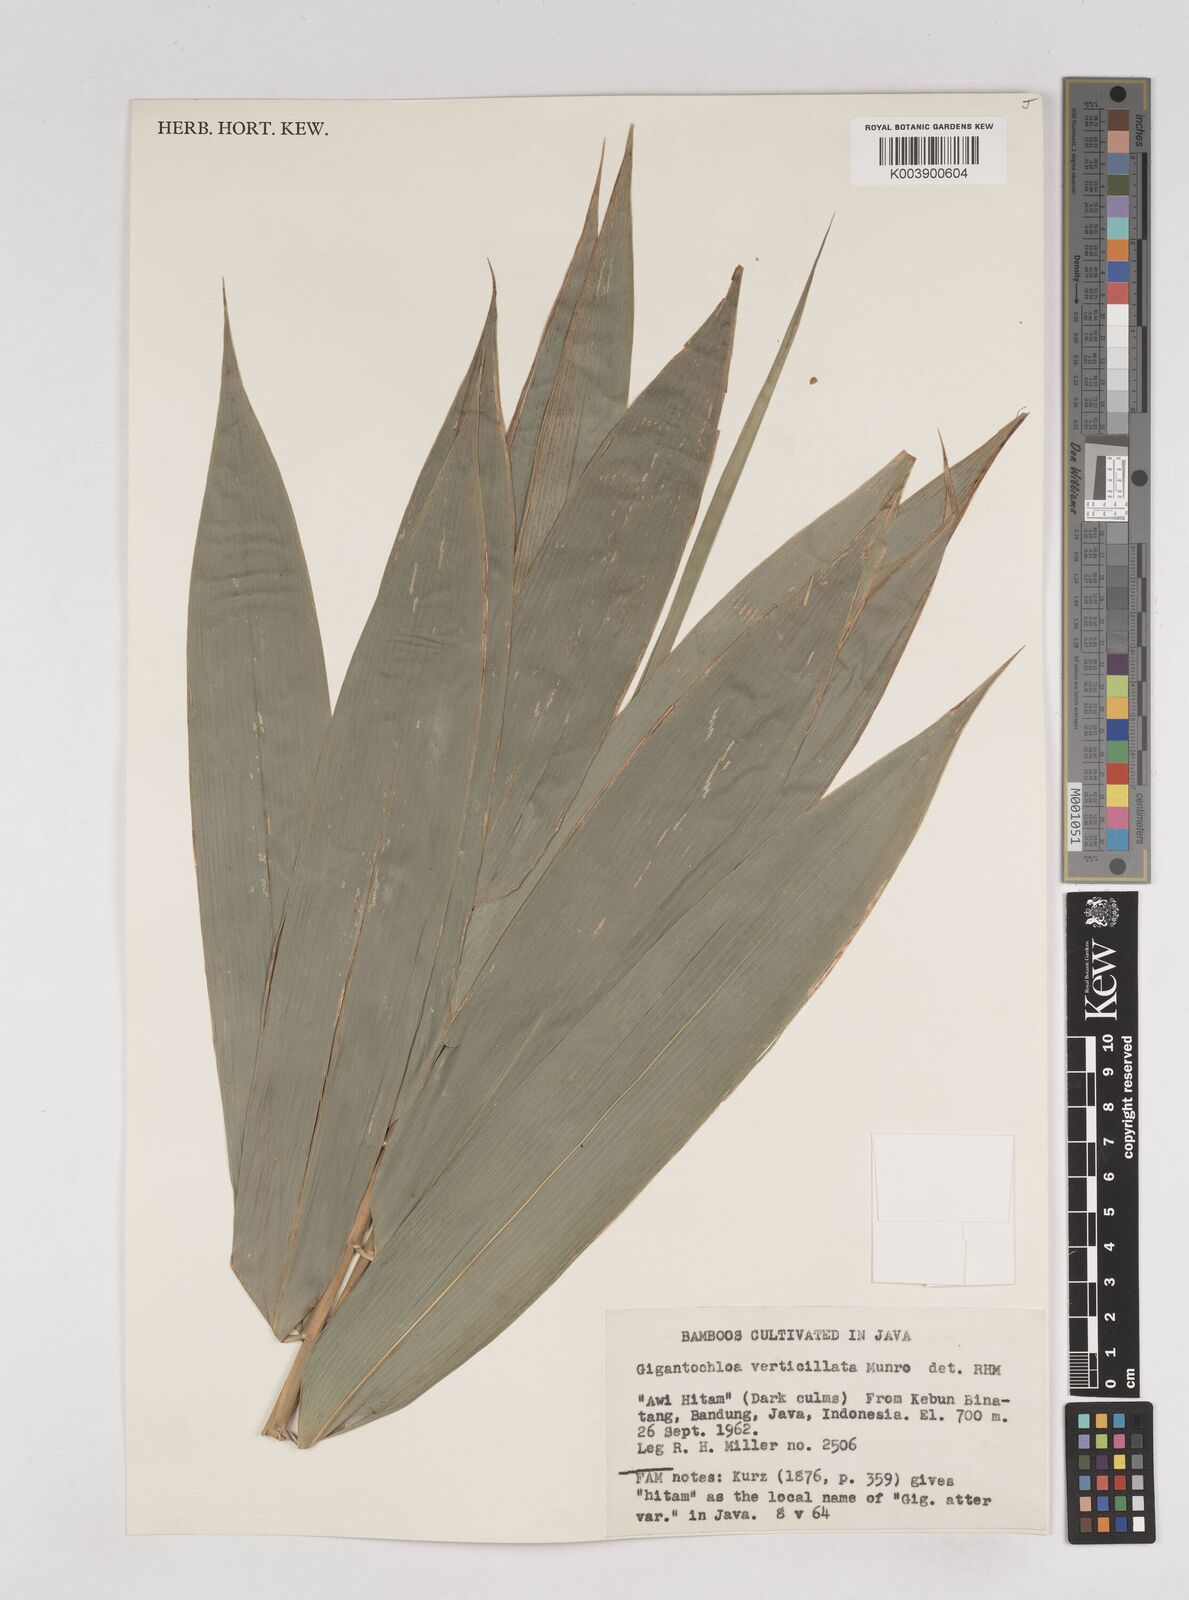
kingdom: Plantae
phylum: Tracheophyta
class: Liliopsida
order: Poales
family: Poaceae
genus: Gigantochloa
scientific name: Gigantochloa
